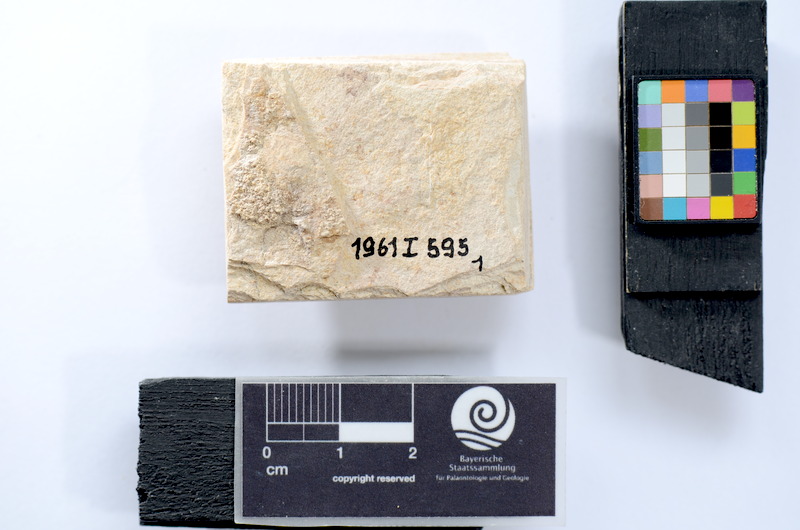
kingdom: Animalia
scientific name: Animalia
